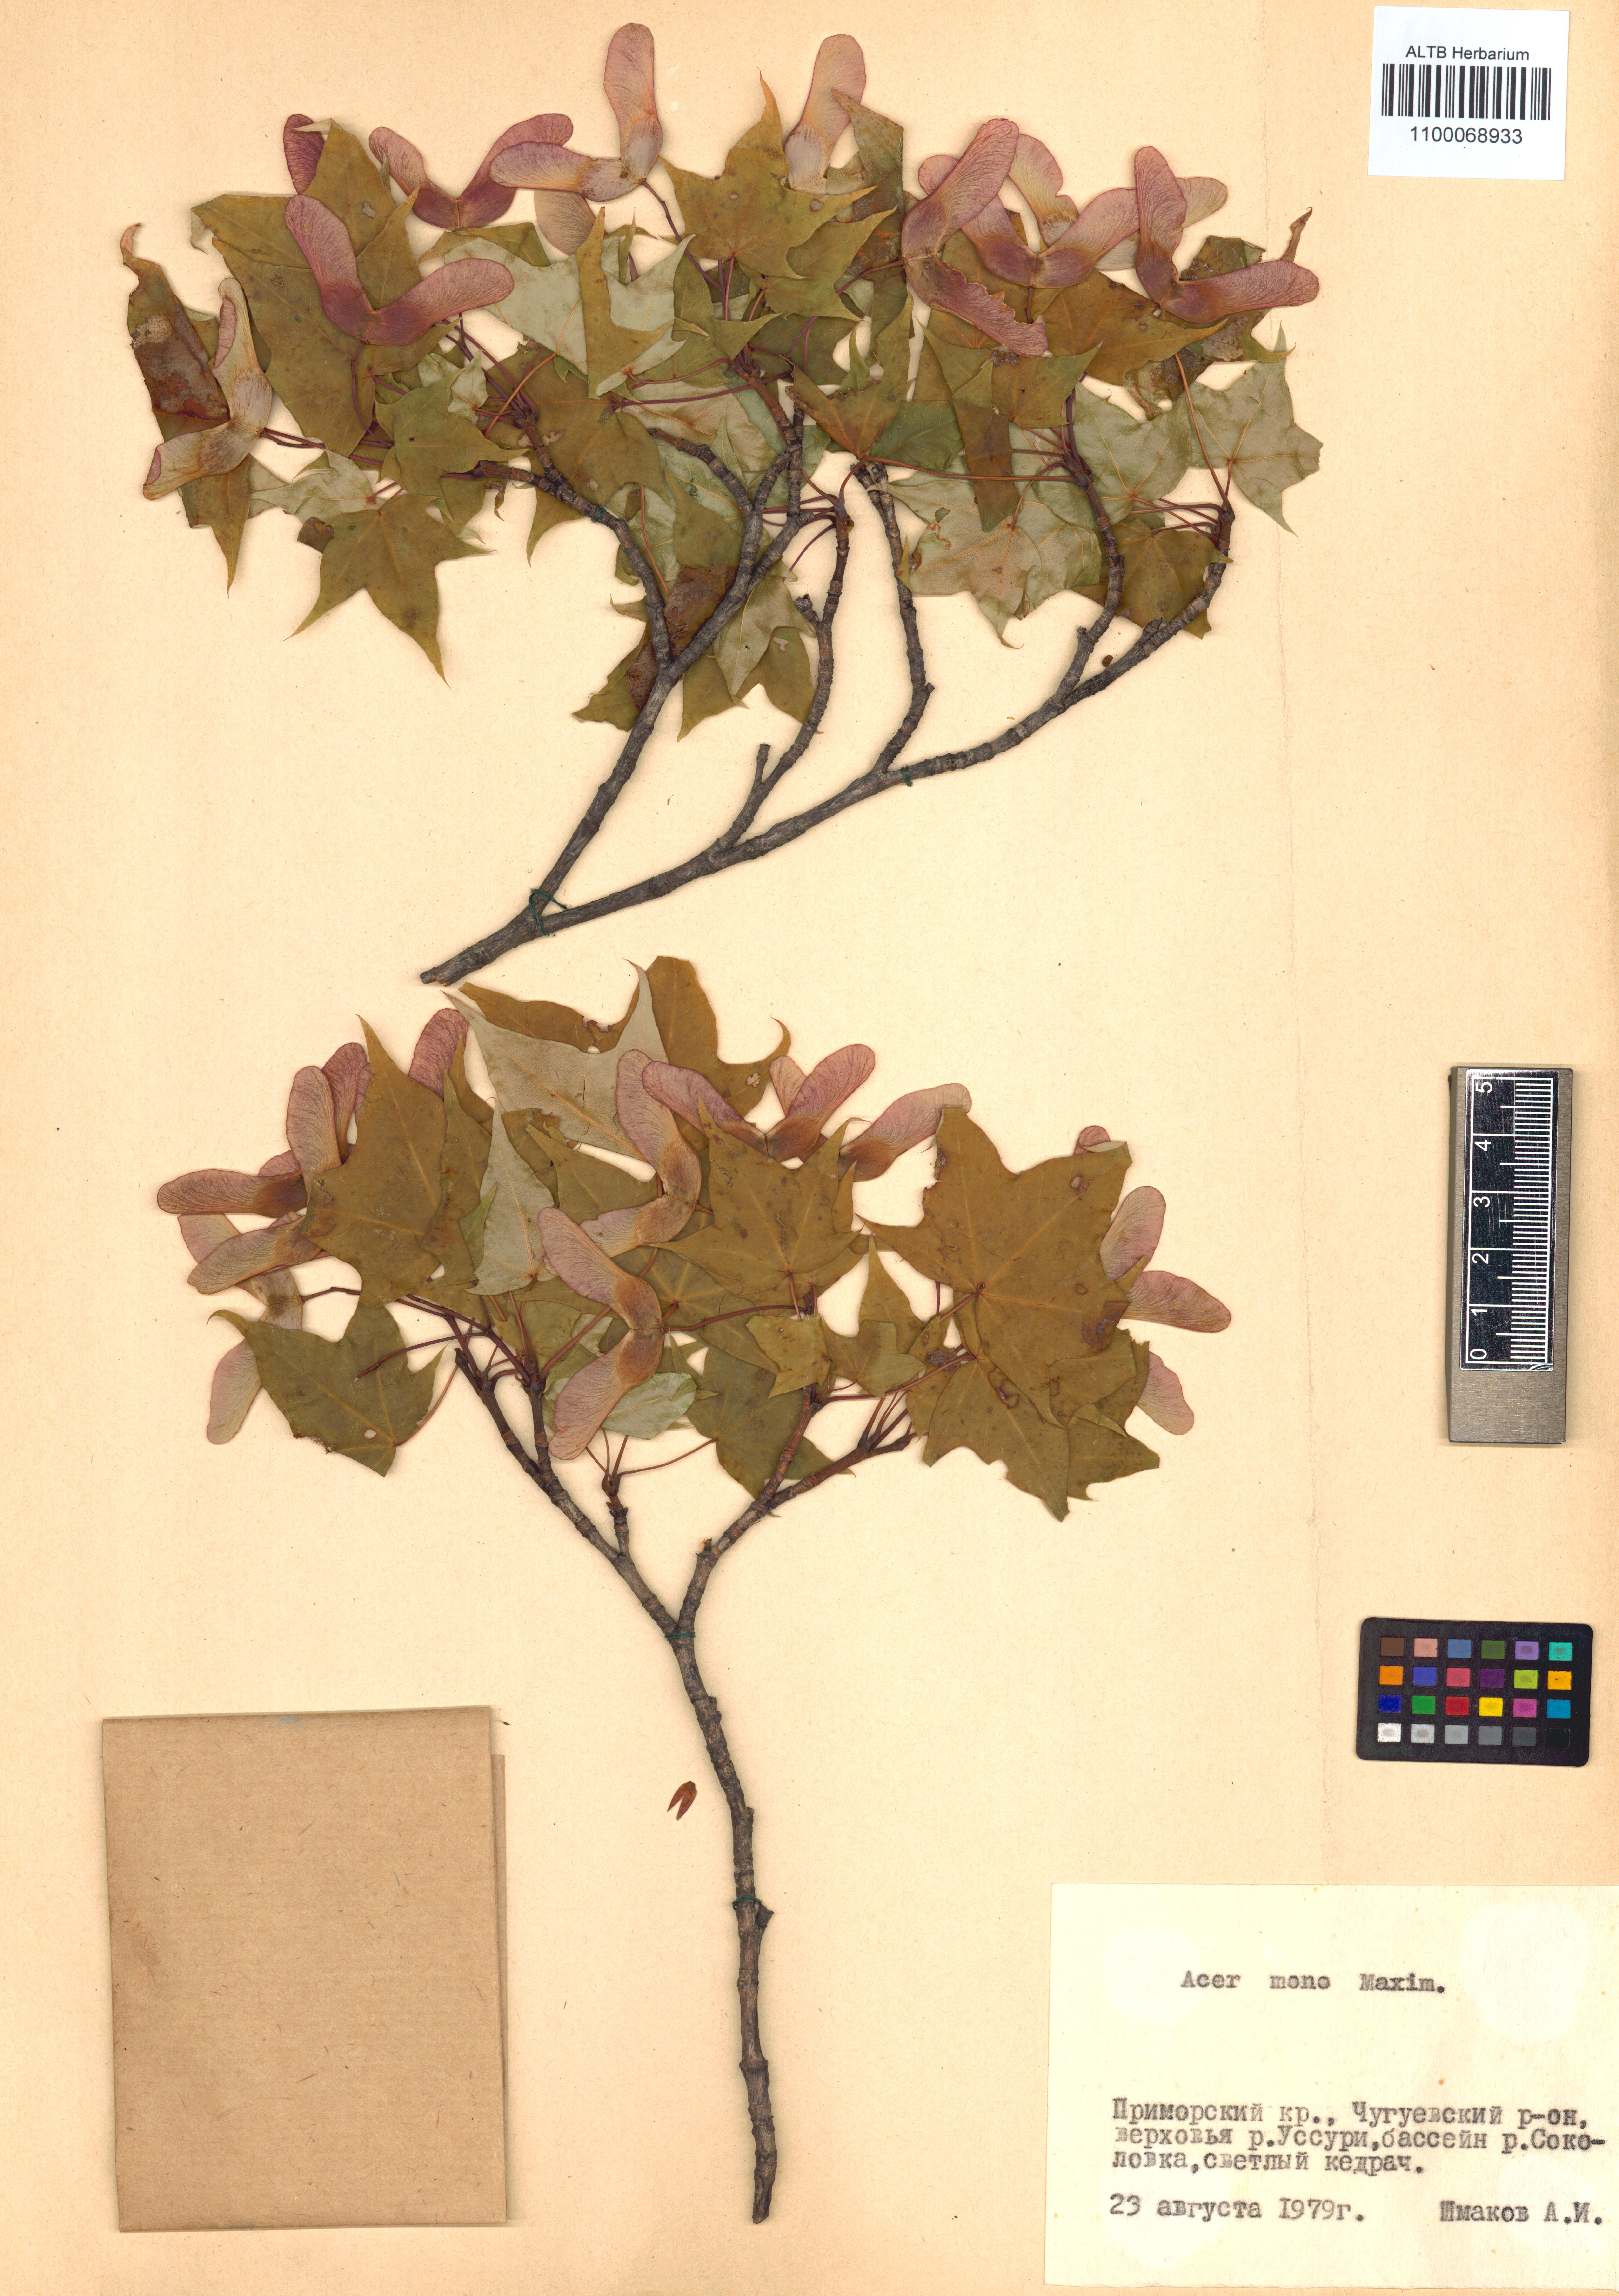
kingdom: Plantae
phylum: Tracheophyta
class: Magnoliopsida
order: Sapindales
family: Sapindaceae
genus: Acer
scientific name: Acer pictum
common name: The painted maple
